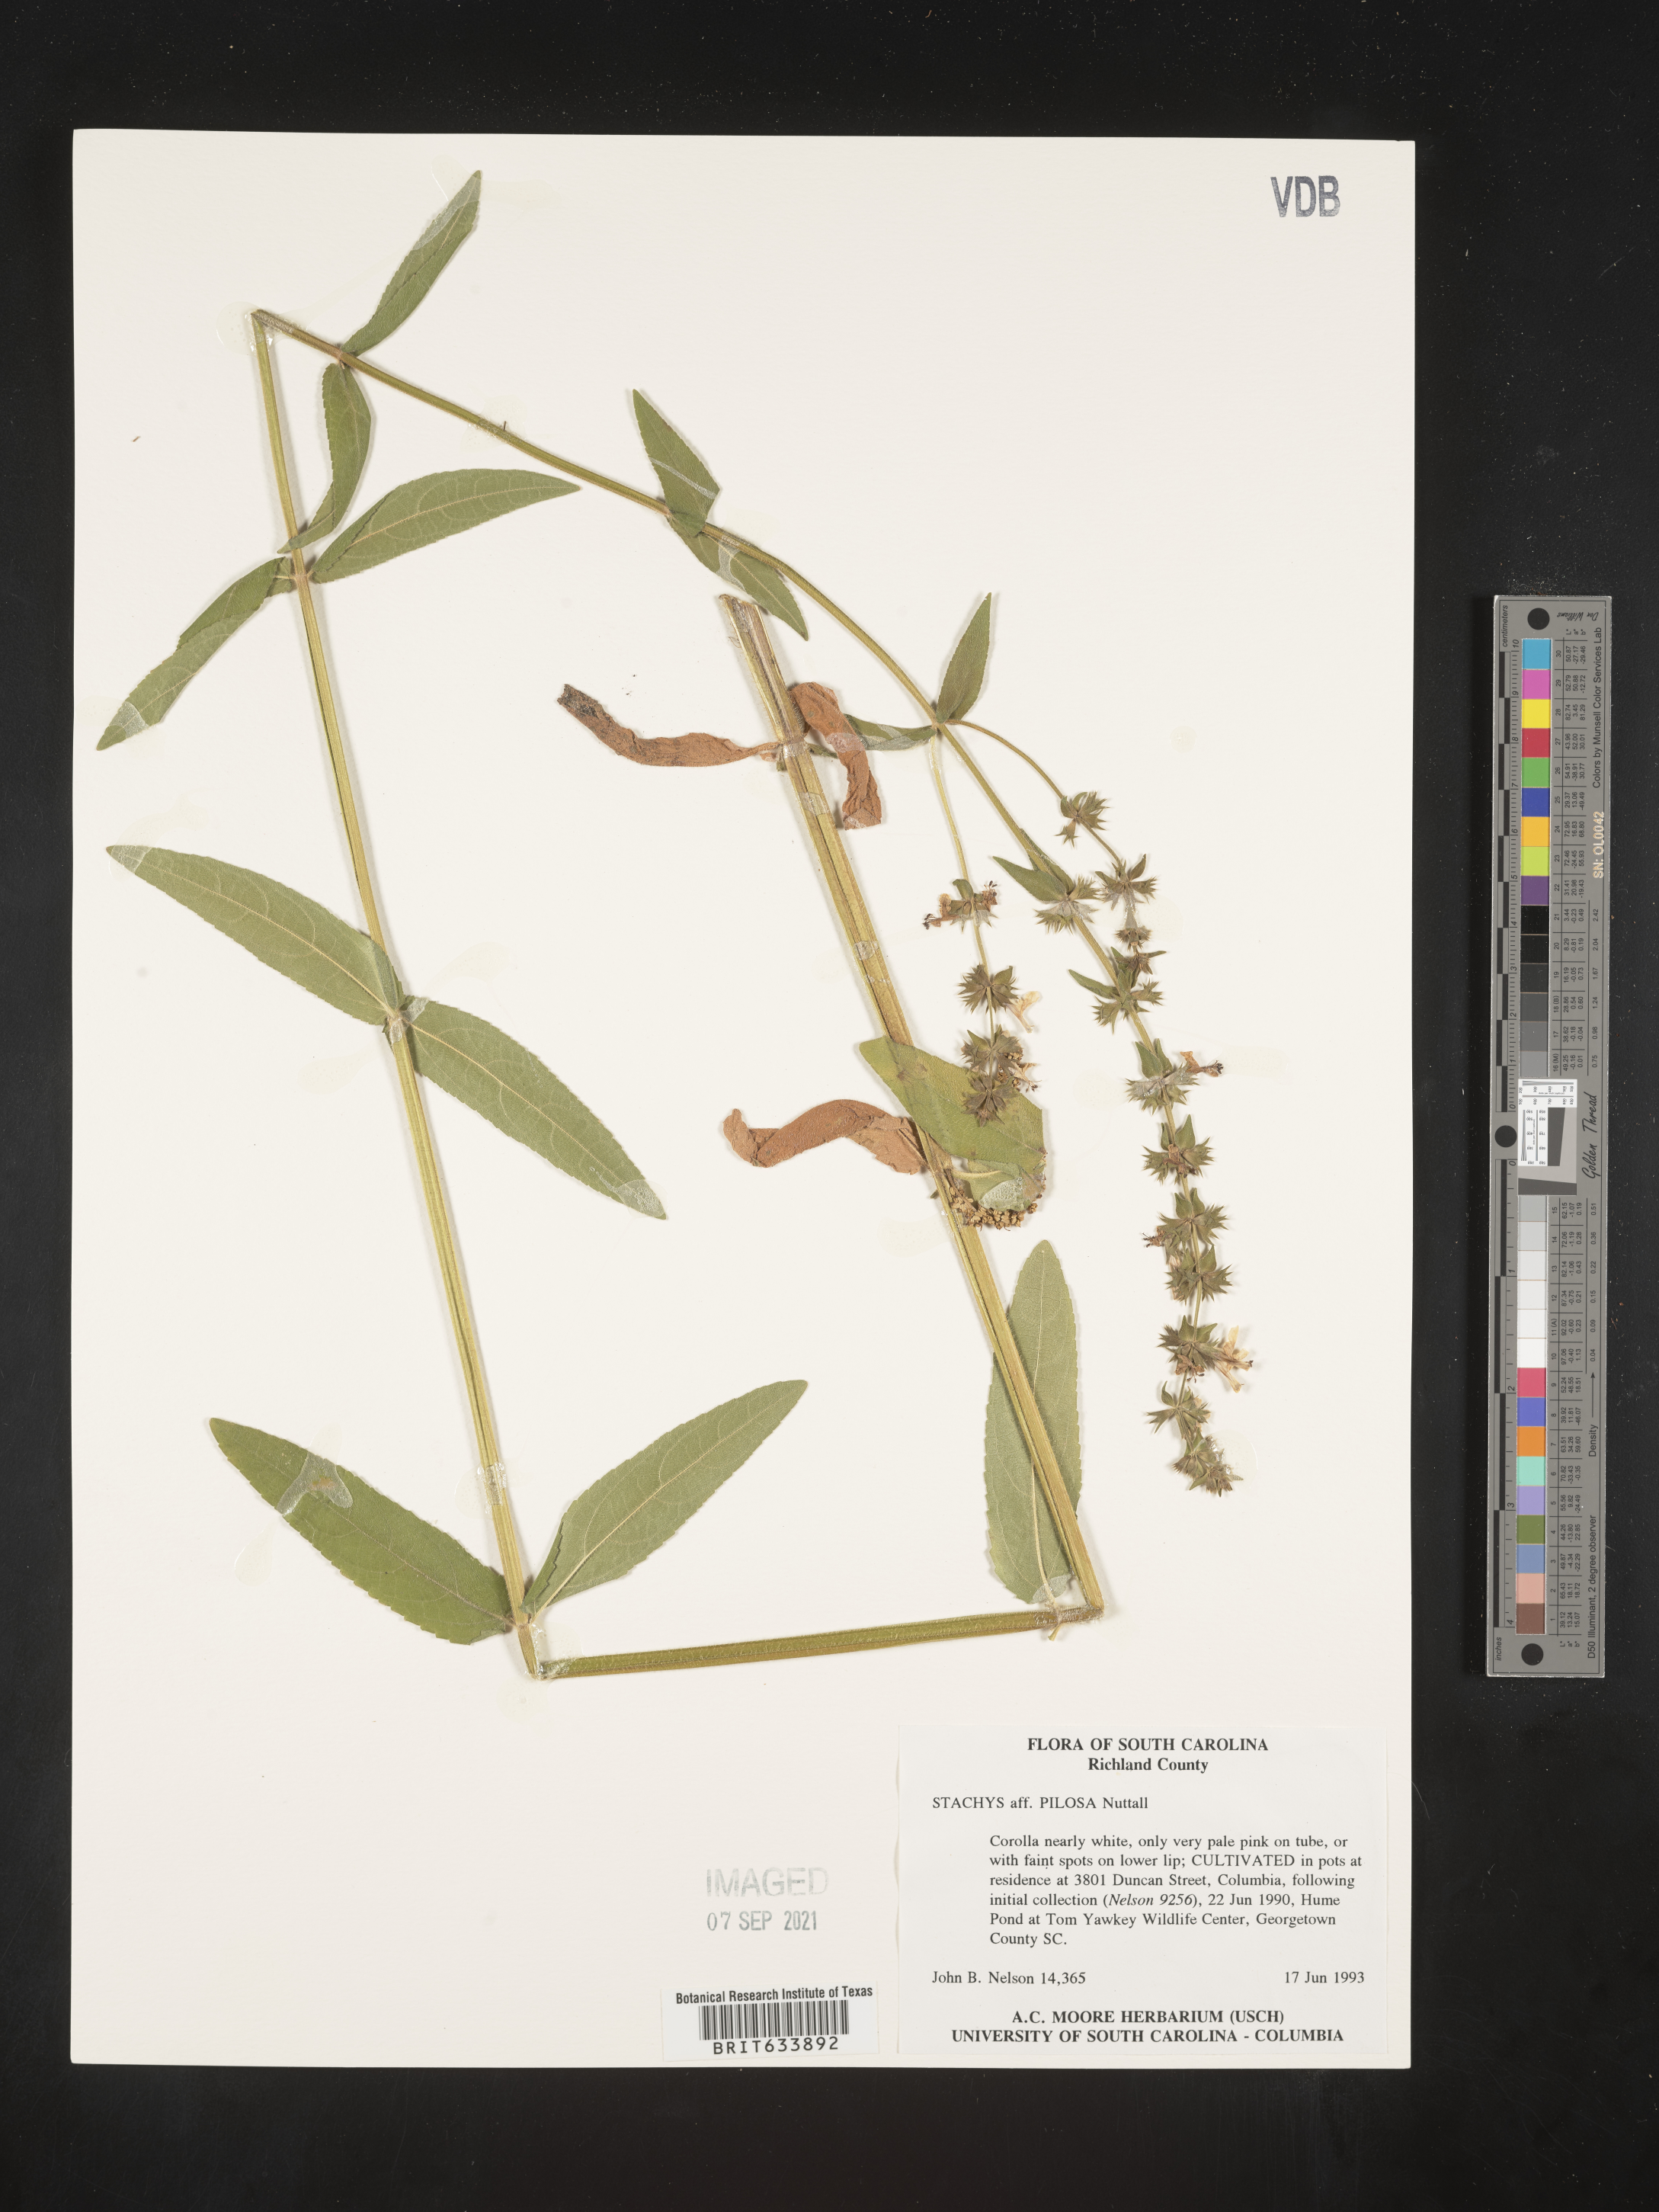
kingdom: Plantae
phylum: Tracheophyta
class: Magnoliopsida
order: Lamiales
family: Lamiaceae
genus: Stachys
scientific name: Stachys
